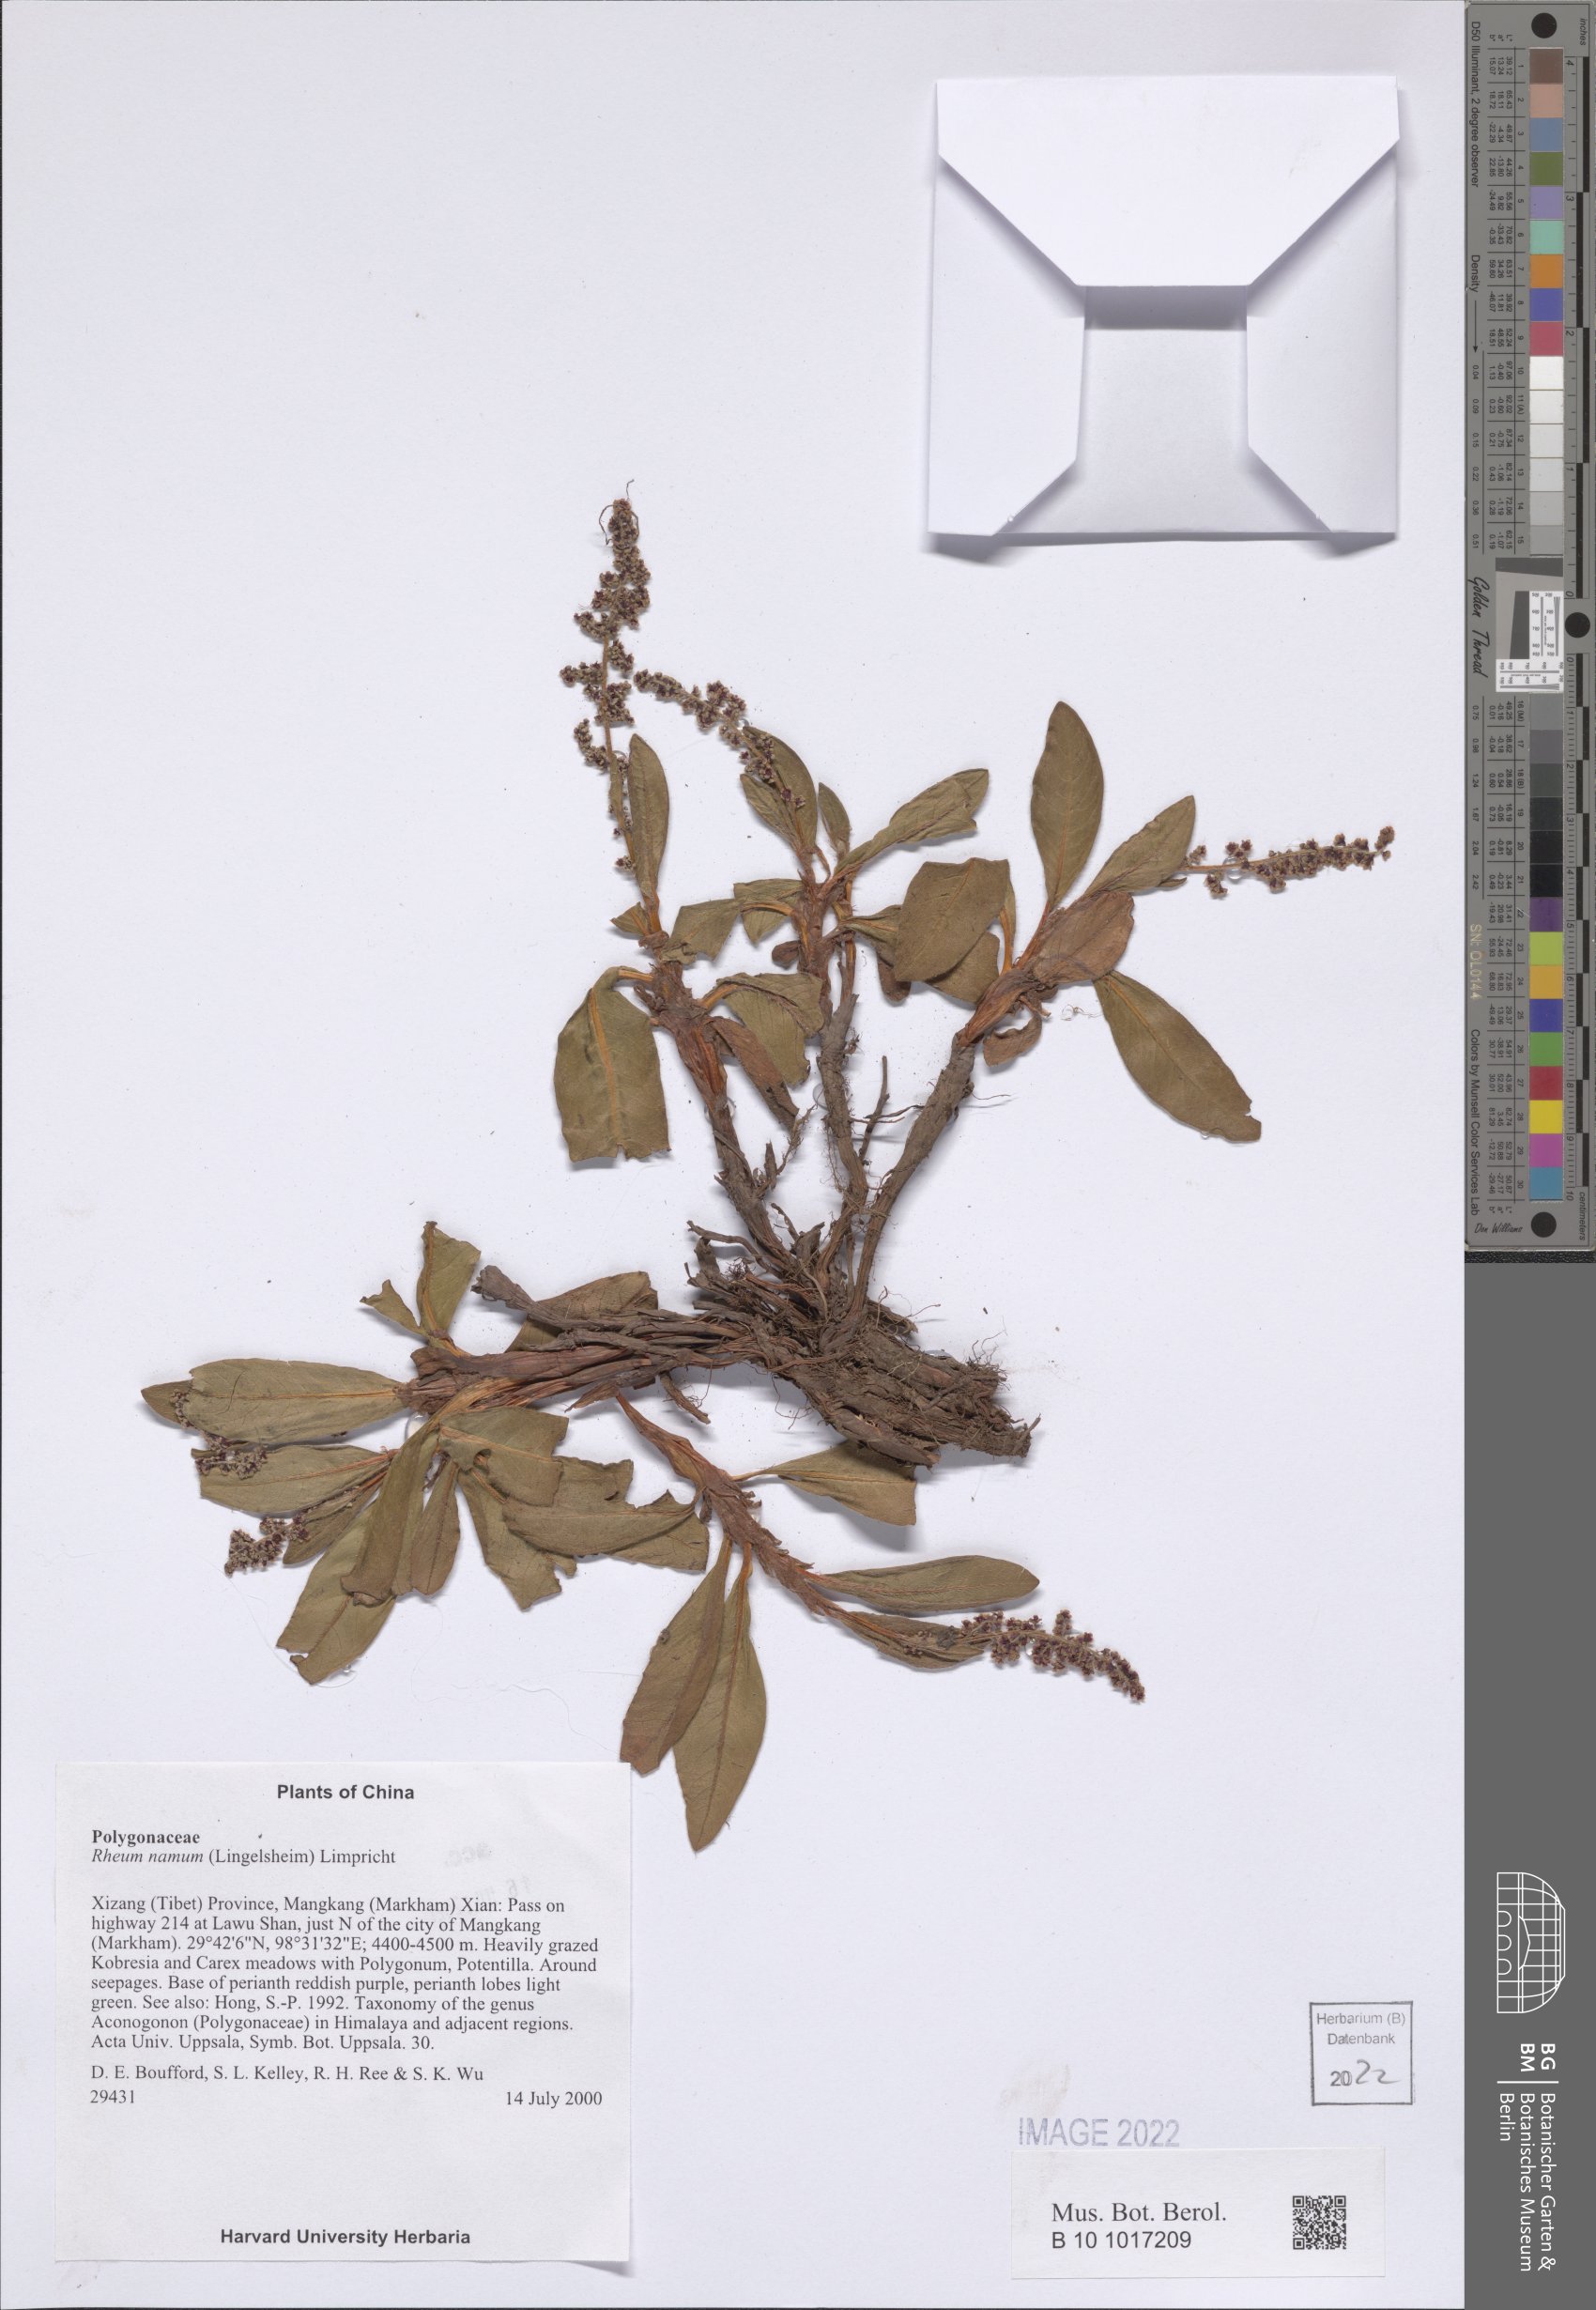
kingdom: Plantae
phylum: Tracheophyta
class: Magnoliopsida
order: Caryophyllales
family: Polygonaceae
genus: Koenigia
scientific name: Koenigia hookeri
